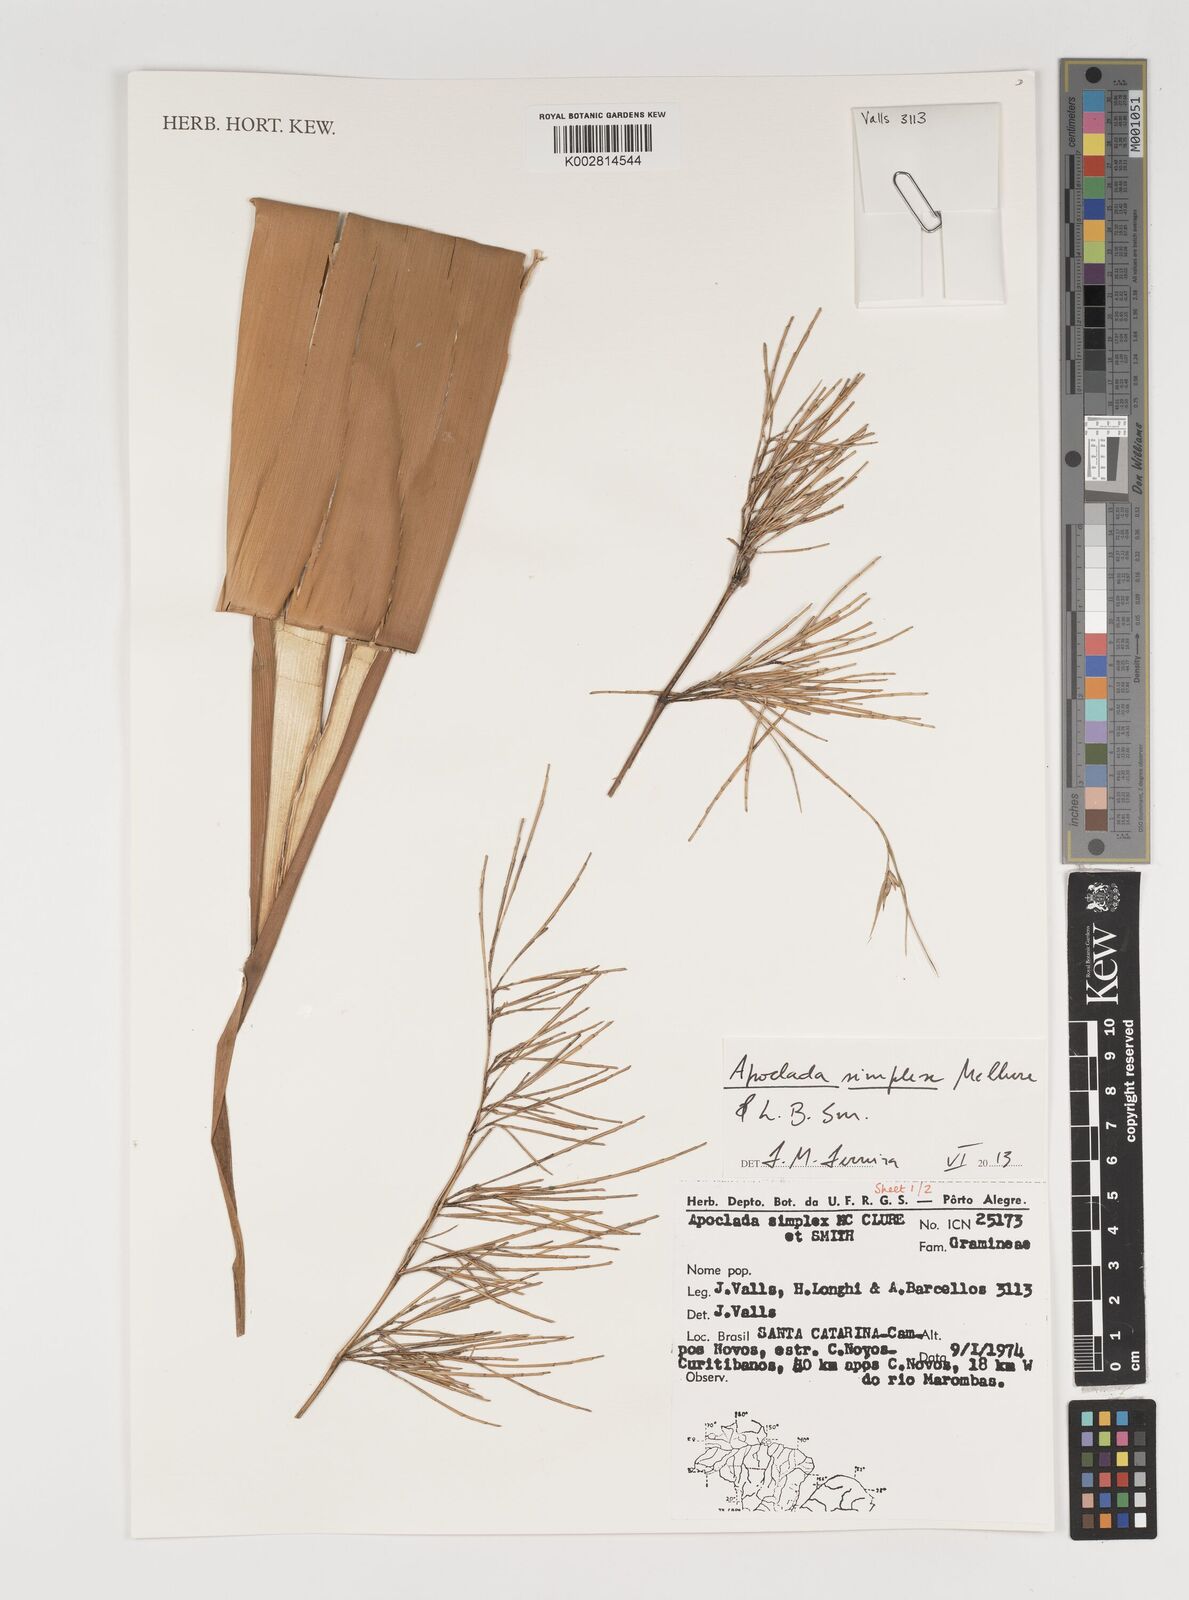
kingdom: Plantae
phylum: Tracheophyta
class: Liliopsida
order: Poales
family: Poaceae
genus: Apoclada
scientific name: Apoclada simplex
